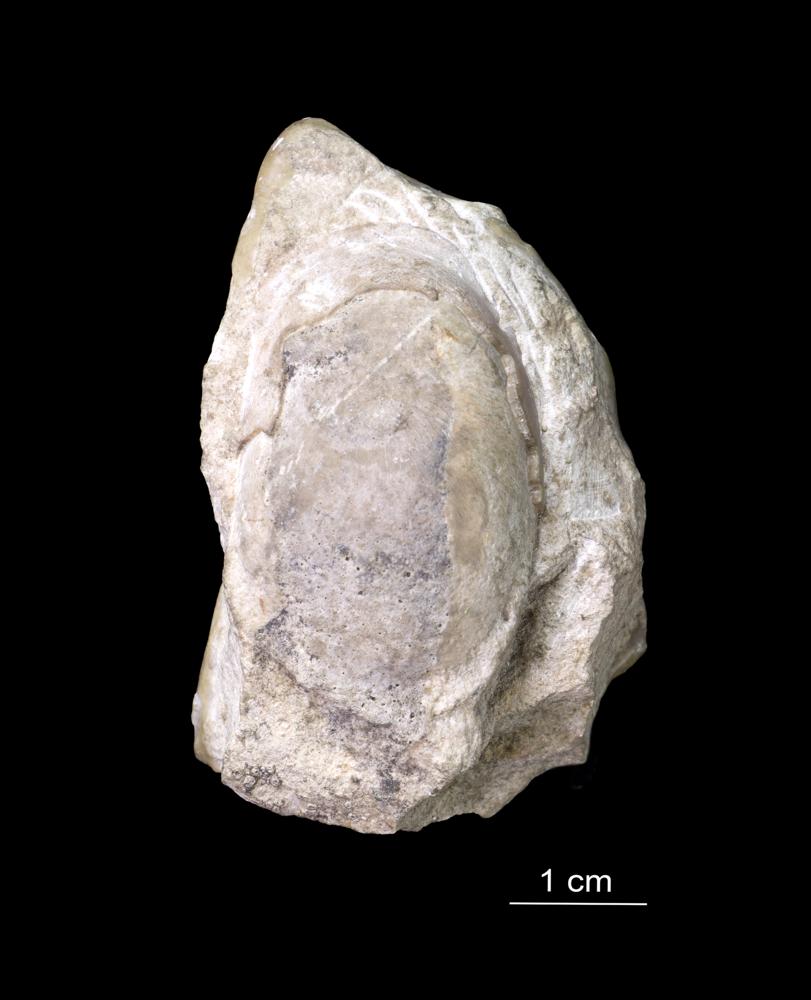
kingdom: Animalia
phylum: Arthropoda
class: Ostracoda
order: Platycopida
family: Leperditiidae
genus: Leperditia
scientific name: Leperditia grandis
